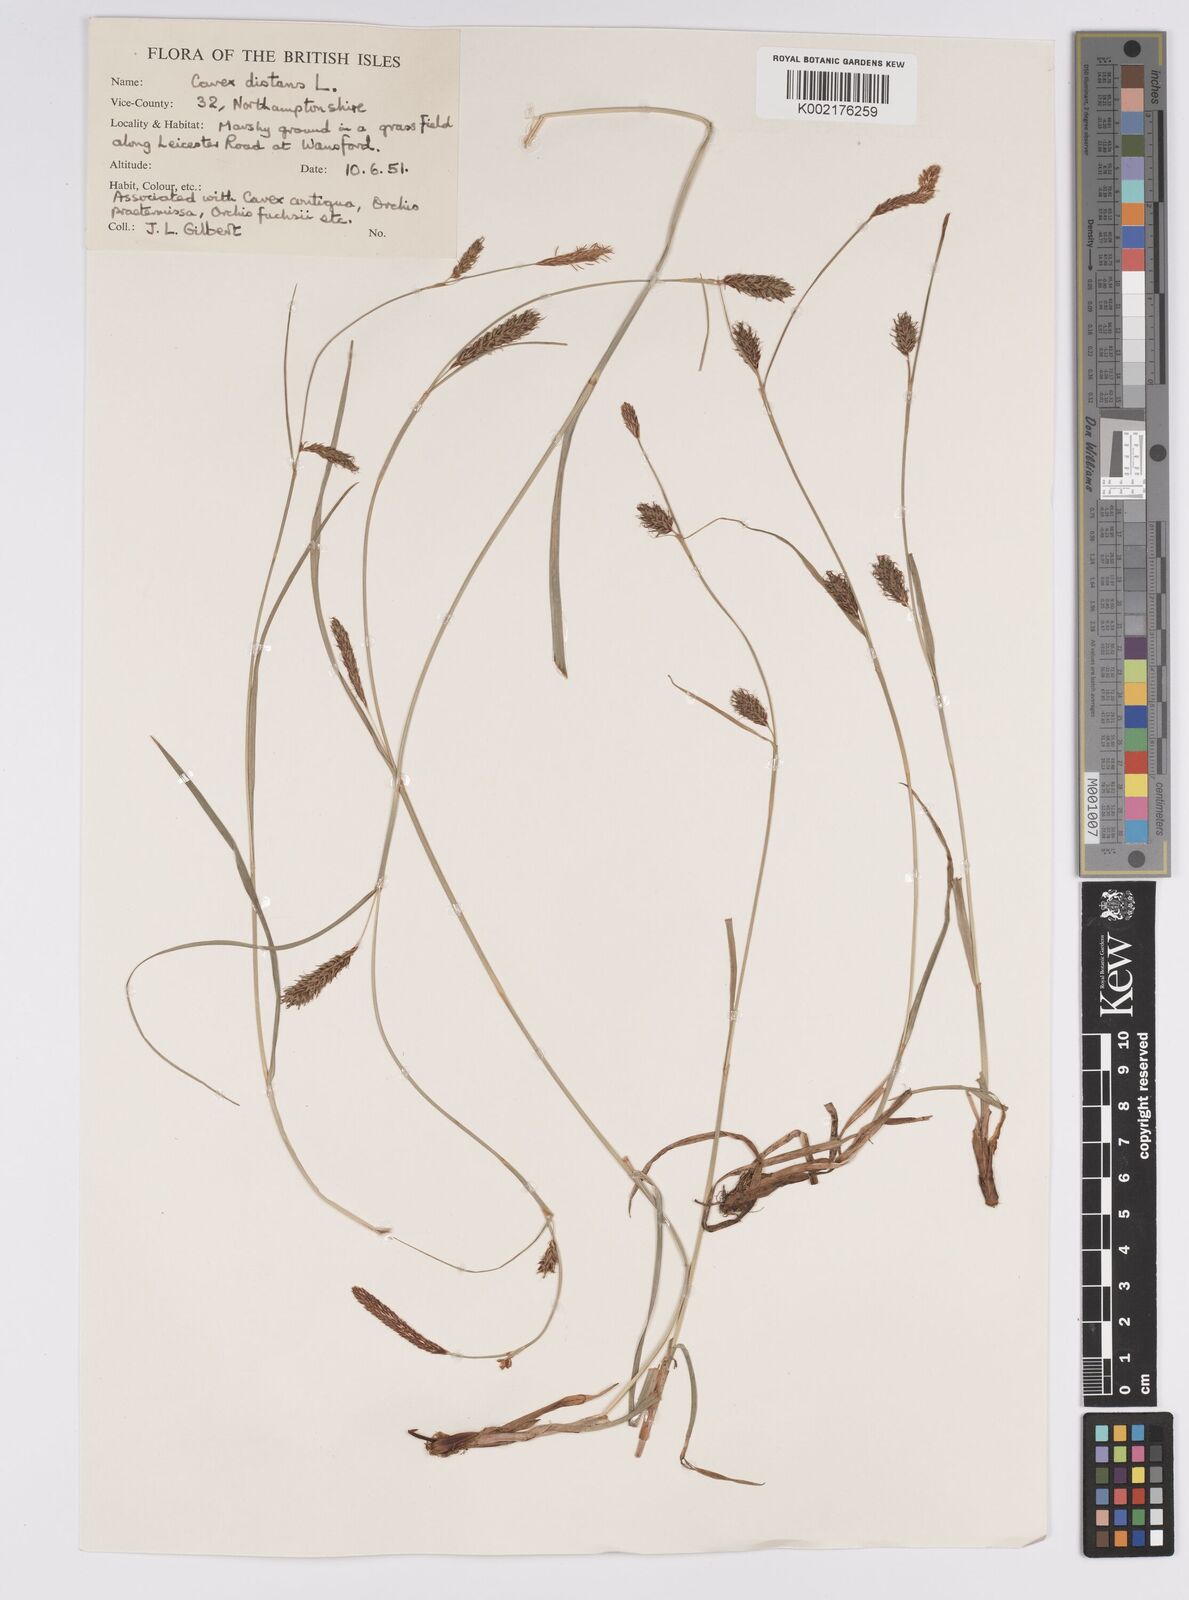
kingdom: Plantae
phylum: Tracheophyta
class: Liliopsida
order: Poales
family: Cyperaceae
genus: Carex
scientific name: Carex distans
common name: Distant sedge
